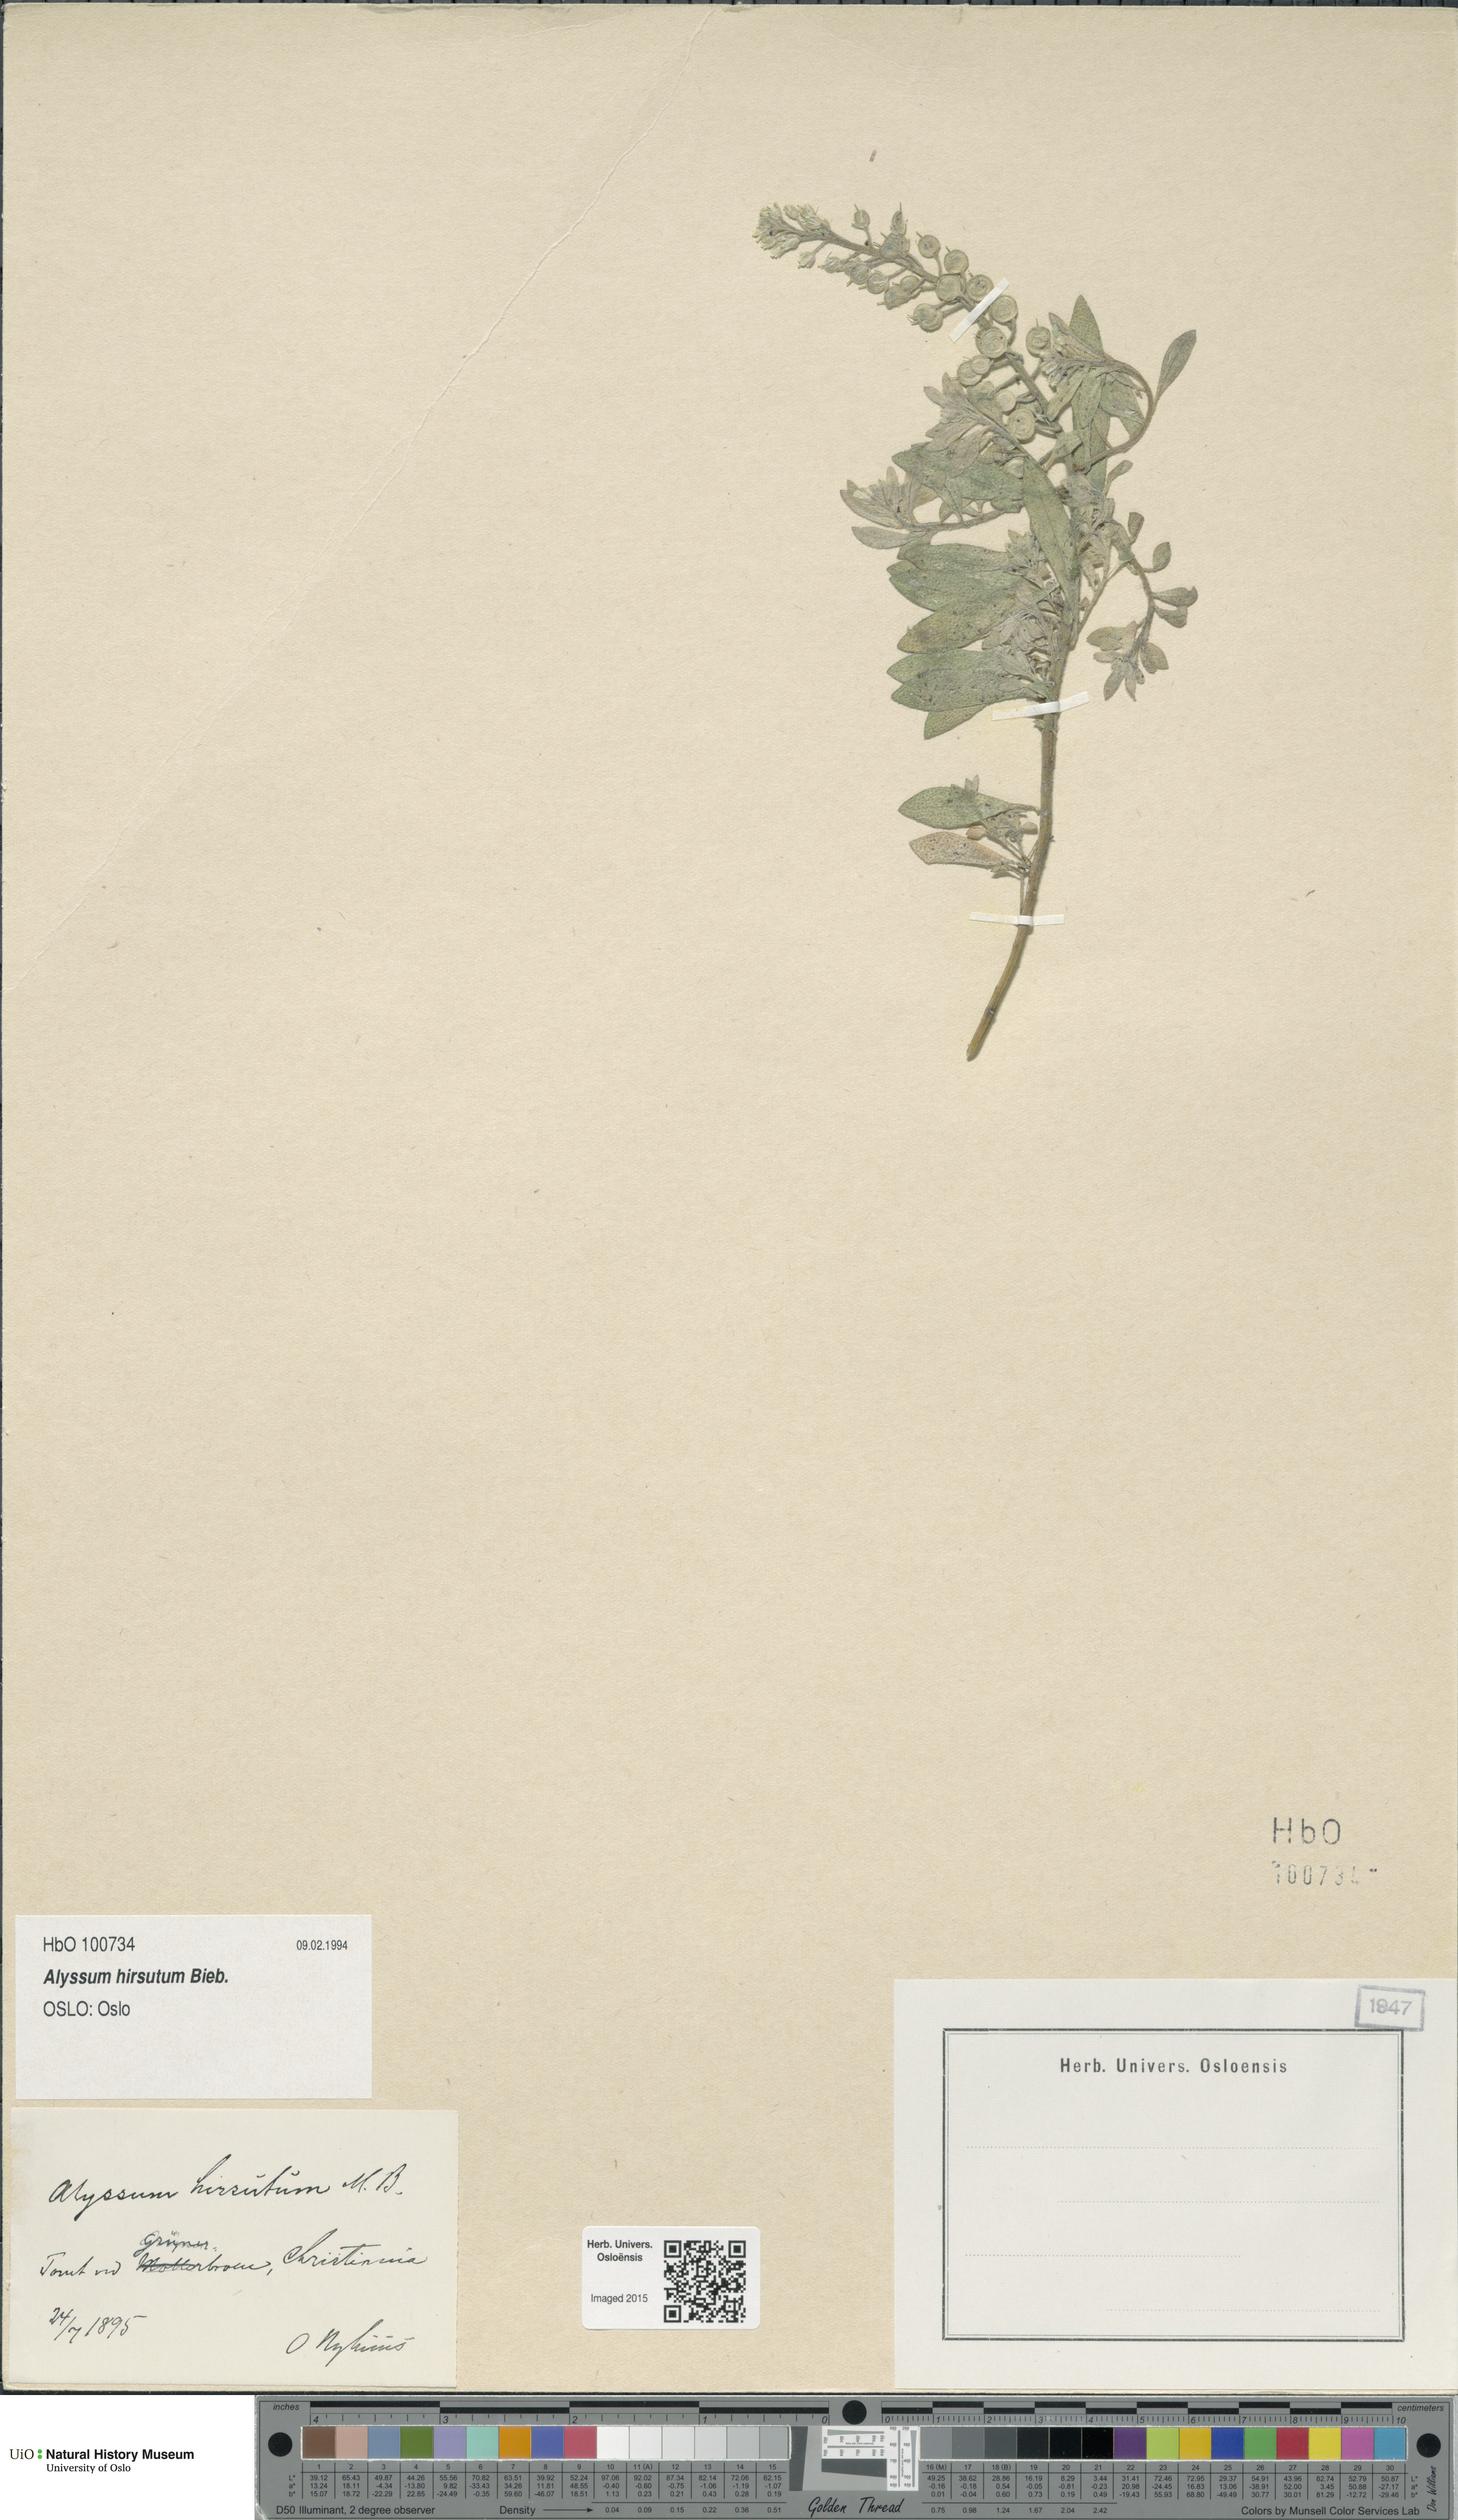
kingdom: Plantae
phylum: Tracheophyta
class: Magnoliopsida
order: Brassicales
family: Brassicaceae
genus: Alyssum
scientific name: Alyssum hirsutum
